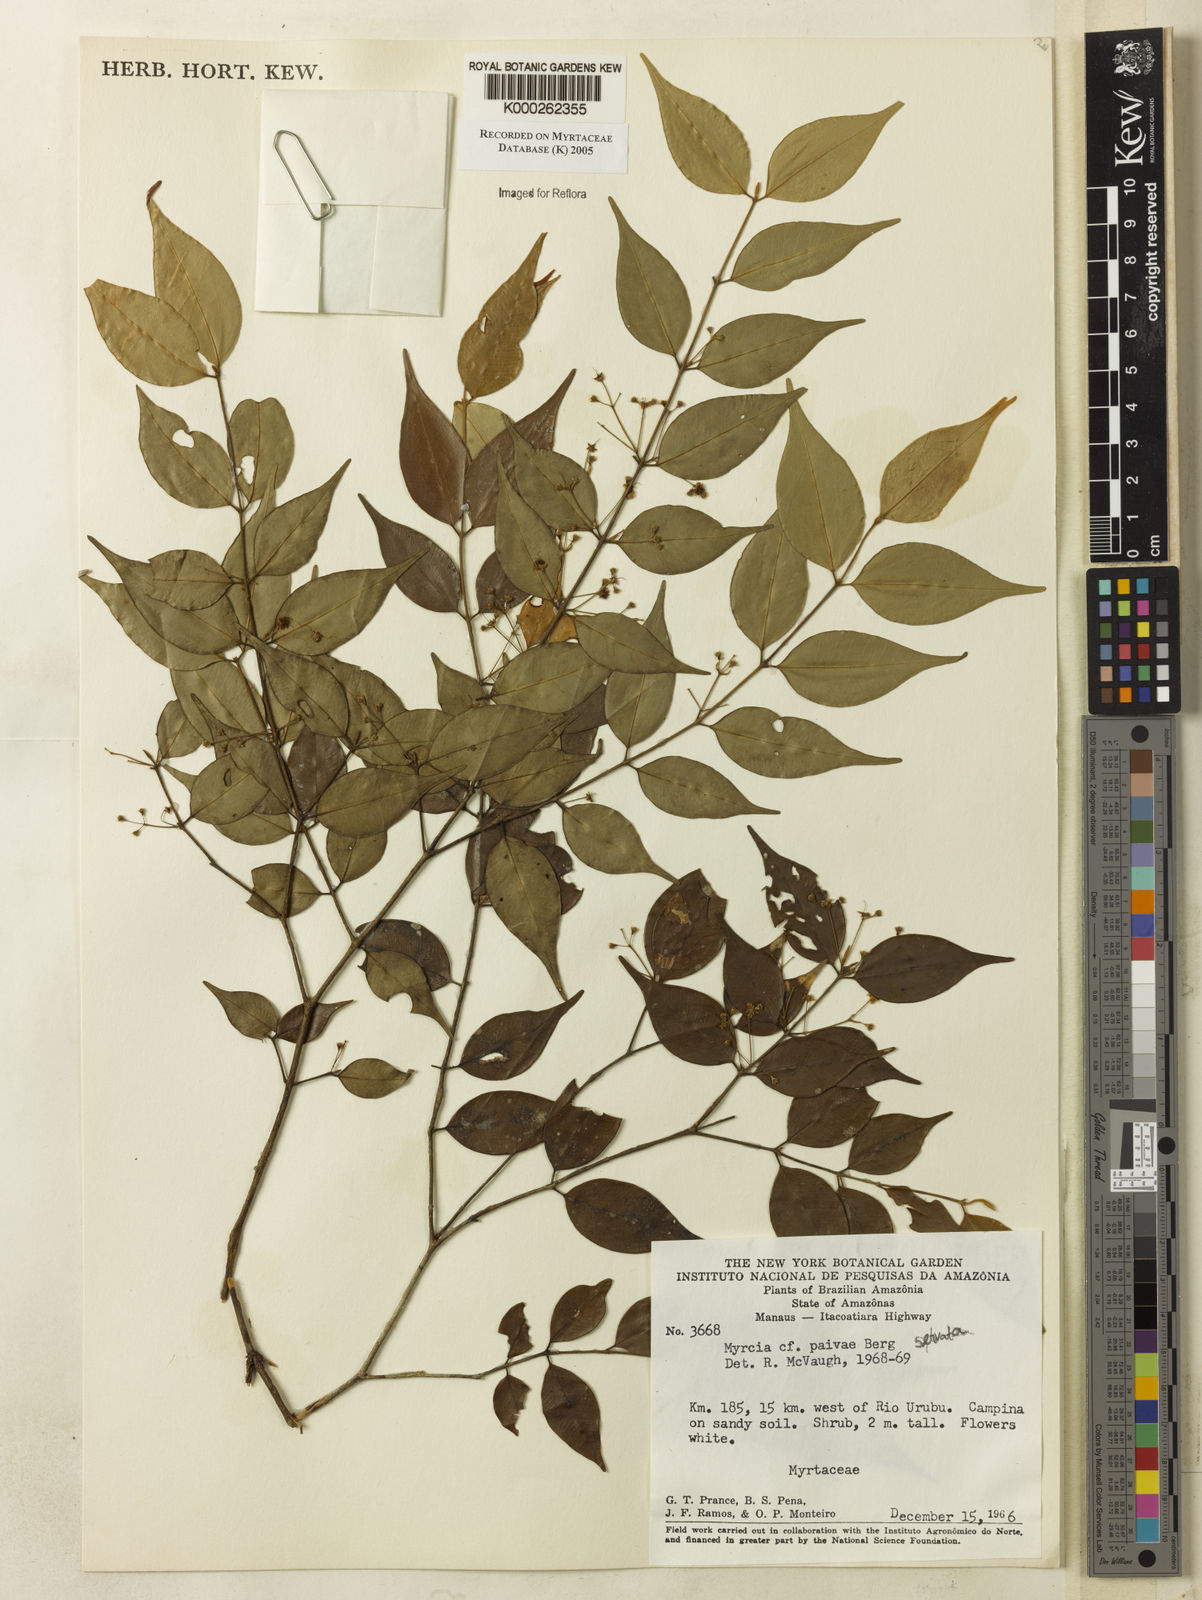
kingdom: Plantae
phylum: Tracheophyta
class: Magnoliopsida
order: Myrtales
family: Myrtaceae
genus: Myrcia
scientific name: Myrcia paivae
